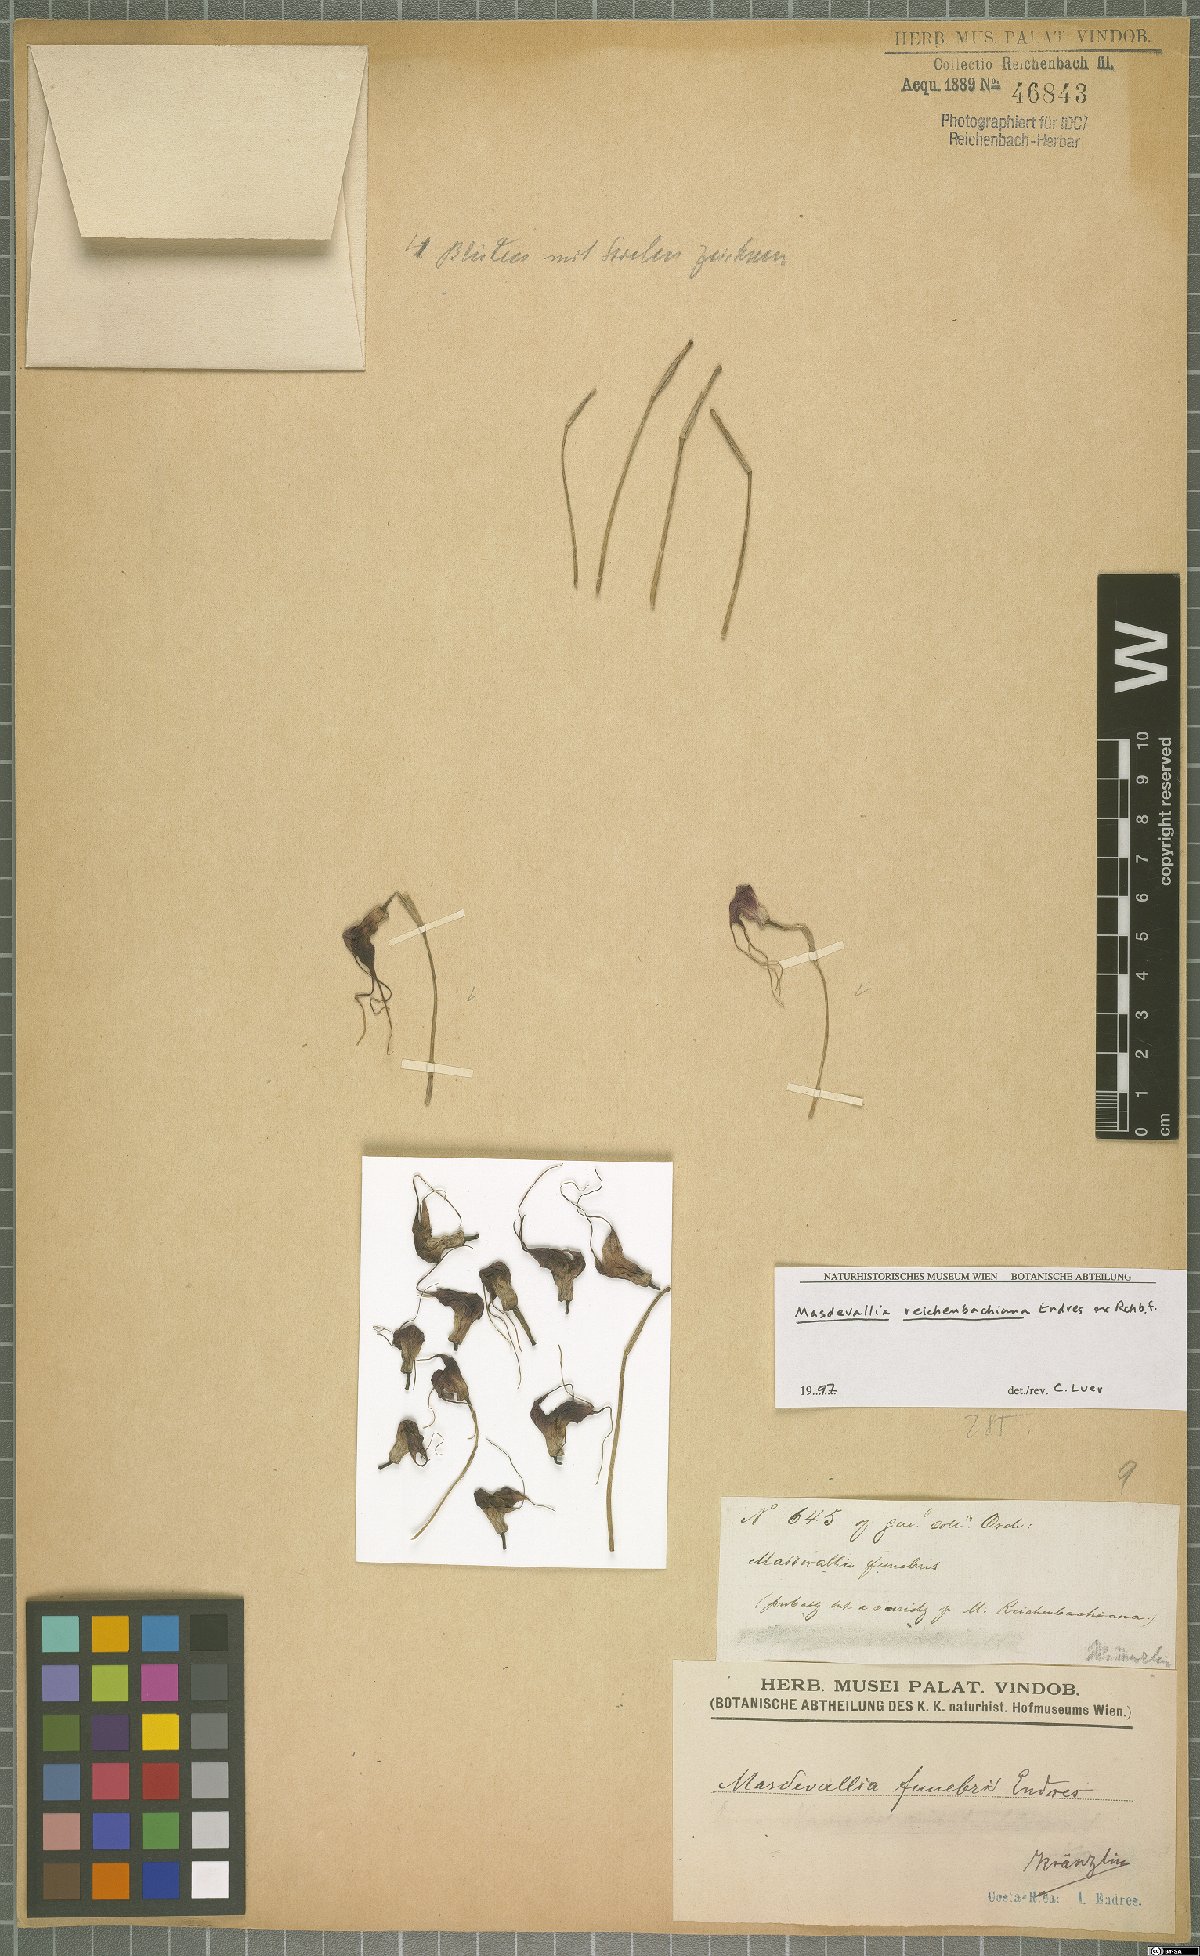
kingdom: Plantae
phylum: Tracheophyta
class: Liliopsida
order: Asparagales
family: Orchidaceae
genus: Masdevallia
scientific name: Masdevallia reichenbachiana
